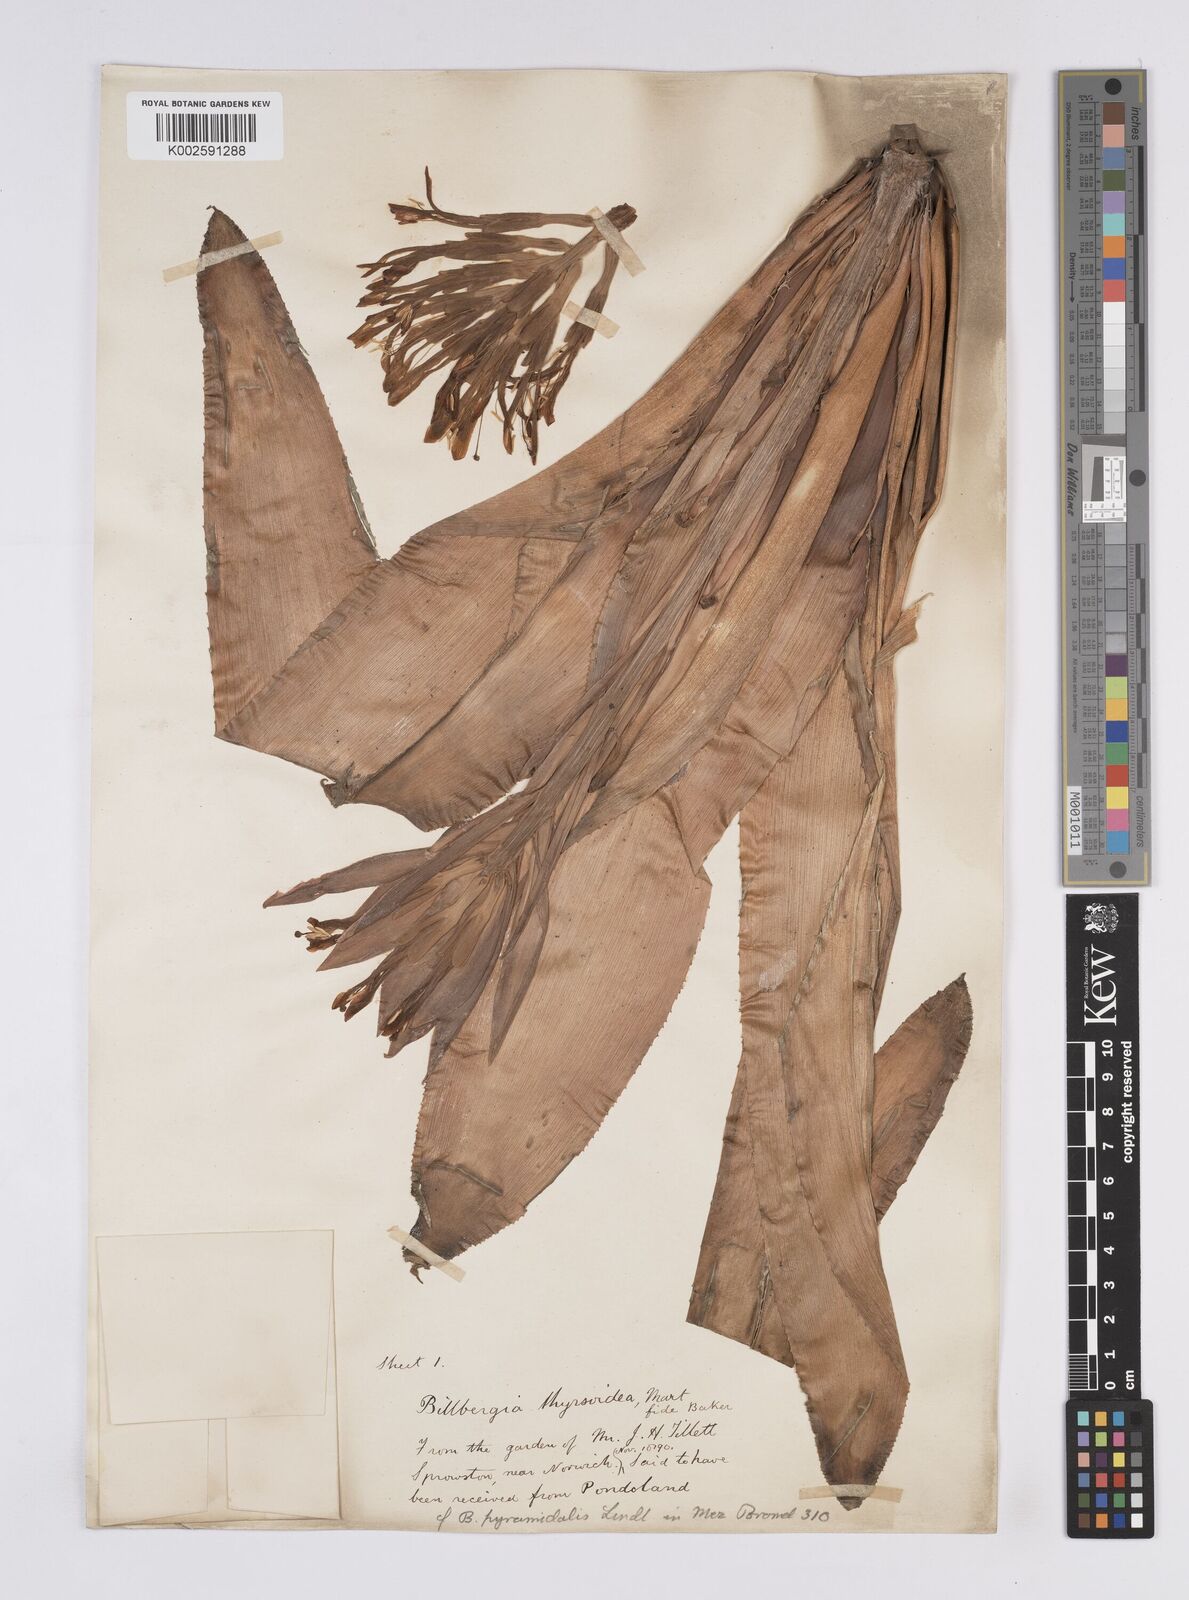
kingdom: Plantae
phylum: Tracheophyta
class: Liliopsida
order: Poales
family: Bromeliaceae
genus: Billbergia
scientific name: Billbergia pyramidalis
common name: Foolproofplant
